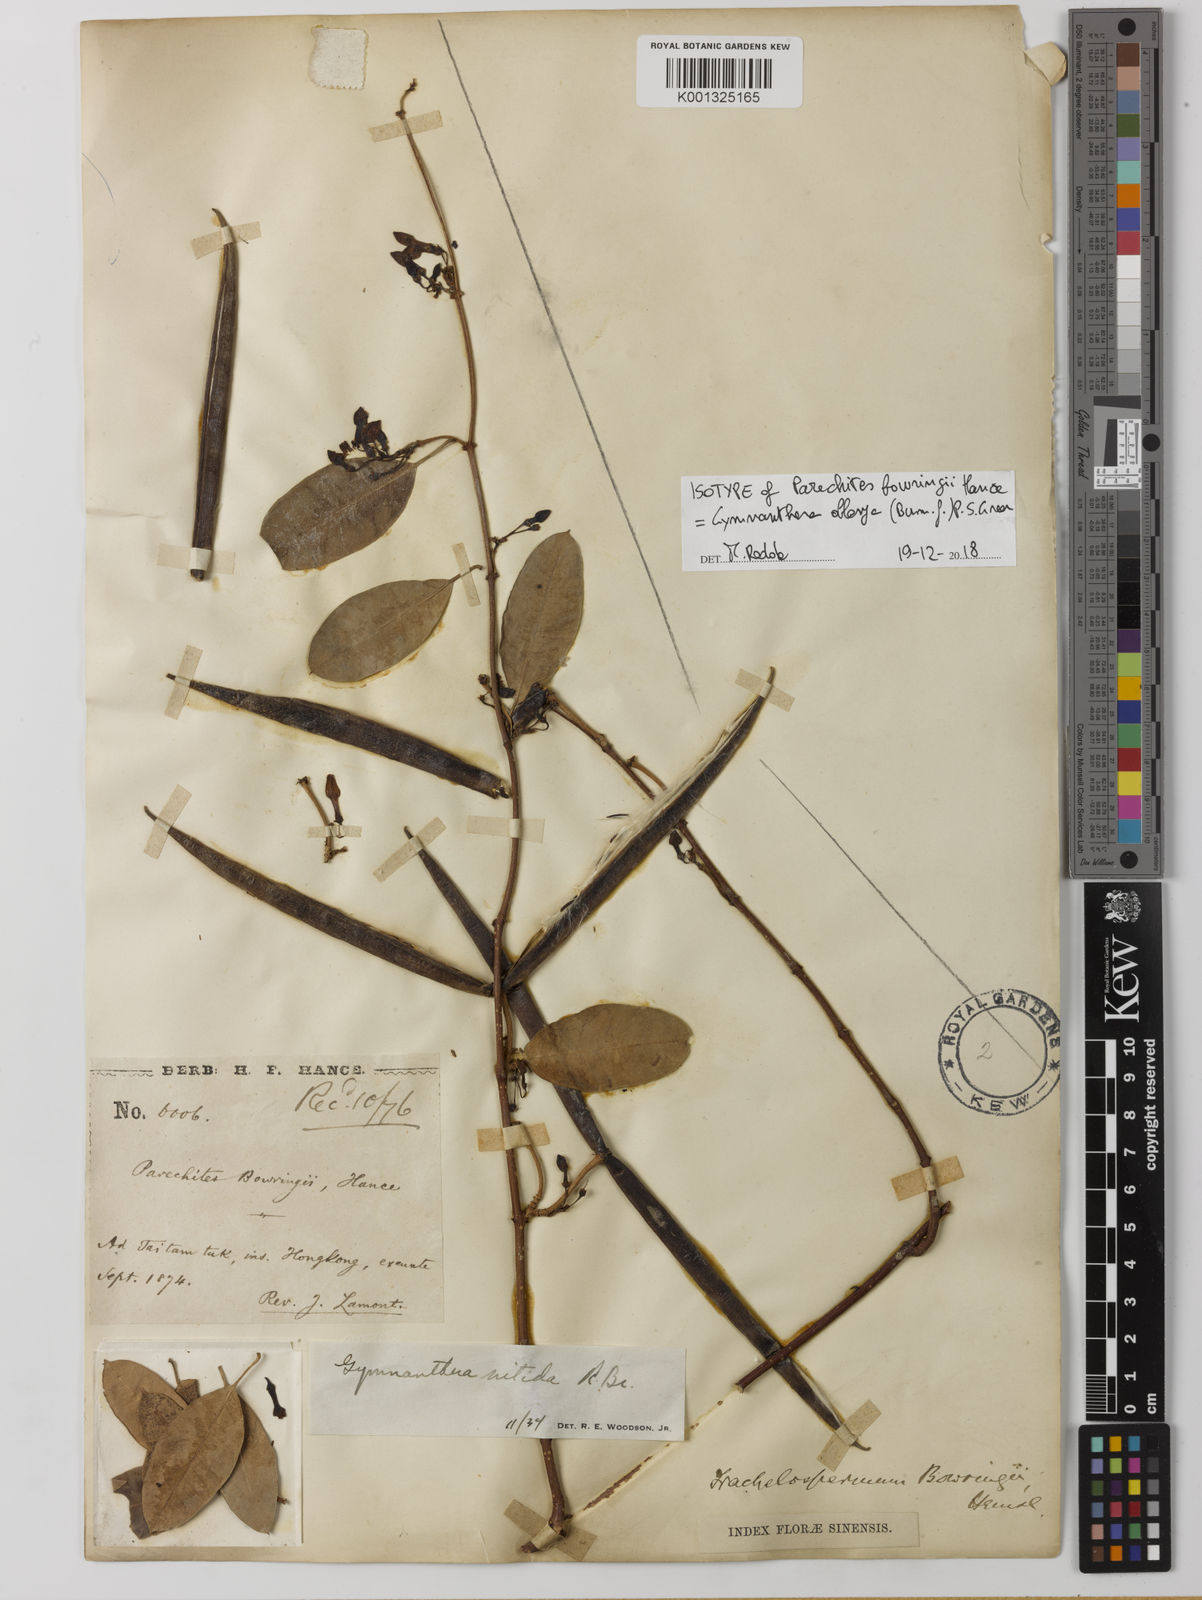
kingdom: Plantae
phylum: Tracheophyta
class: Magnoliopsida
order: Gentianales
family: Apocynaceae
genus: Gymnanthera
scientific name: Gymnanthera oblonga
